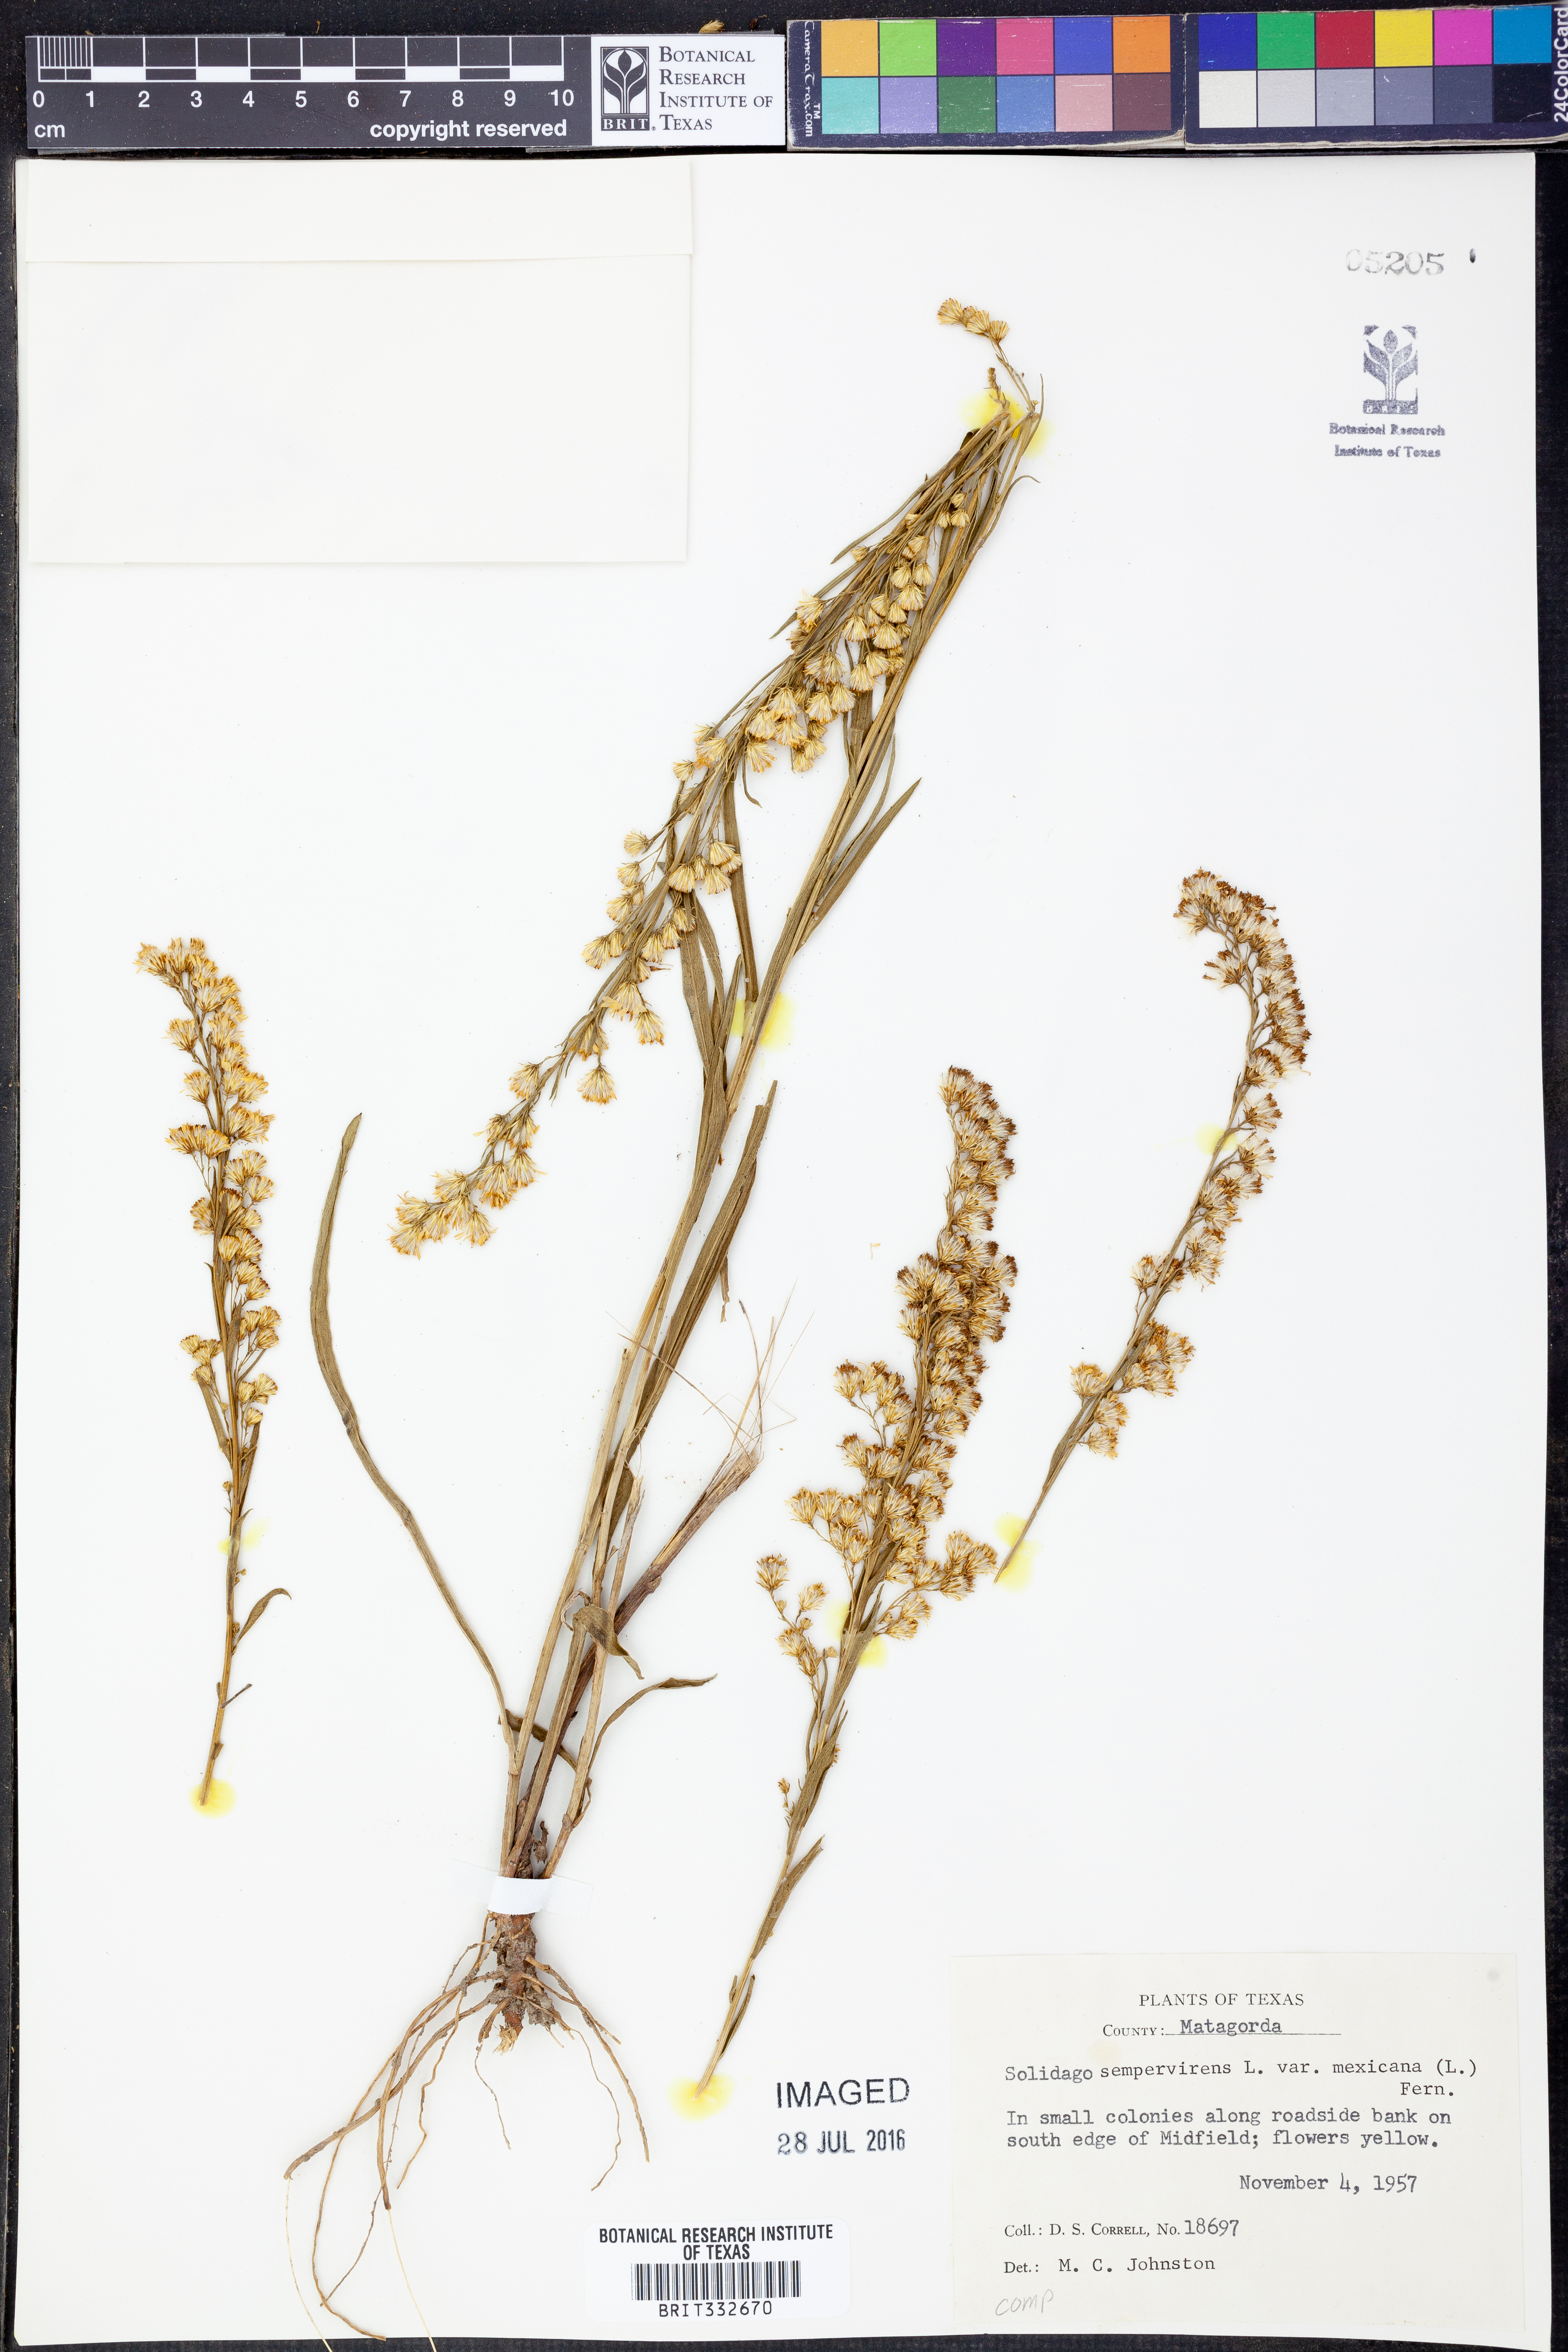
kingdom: Plantae
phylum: Tracheophyta
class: Magnoliopsida
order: Asterales
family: Asteraceae
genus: Solidago
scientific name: Solidago mexicana
